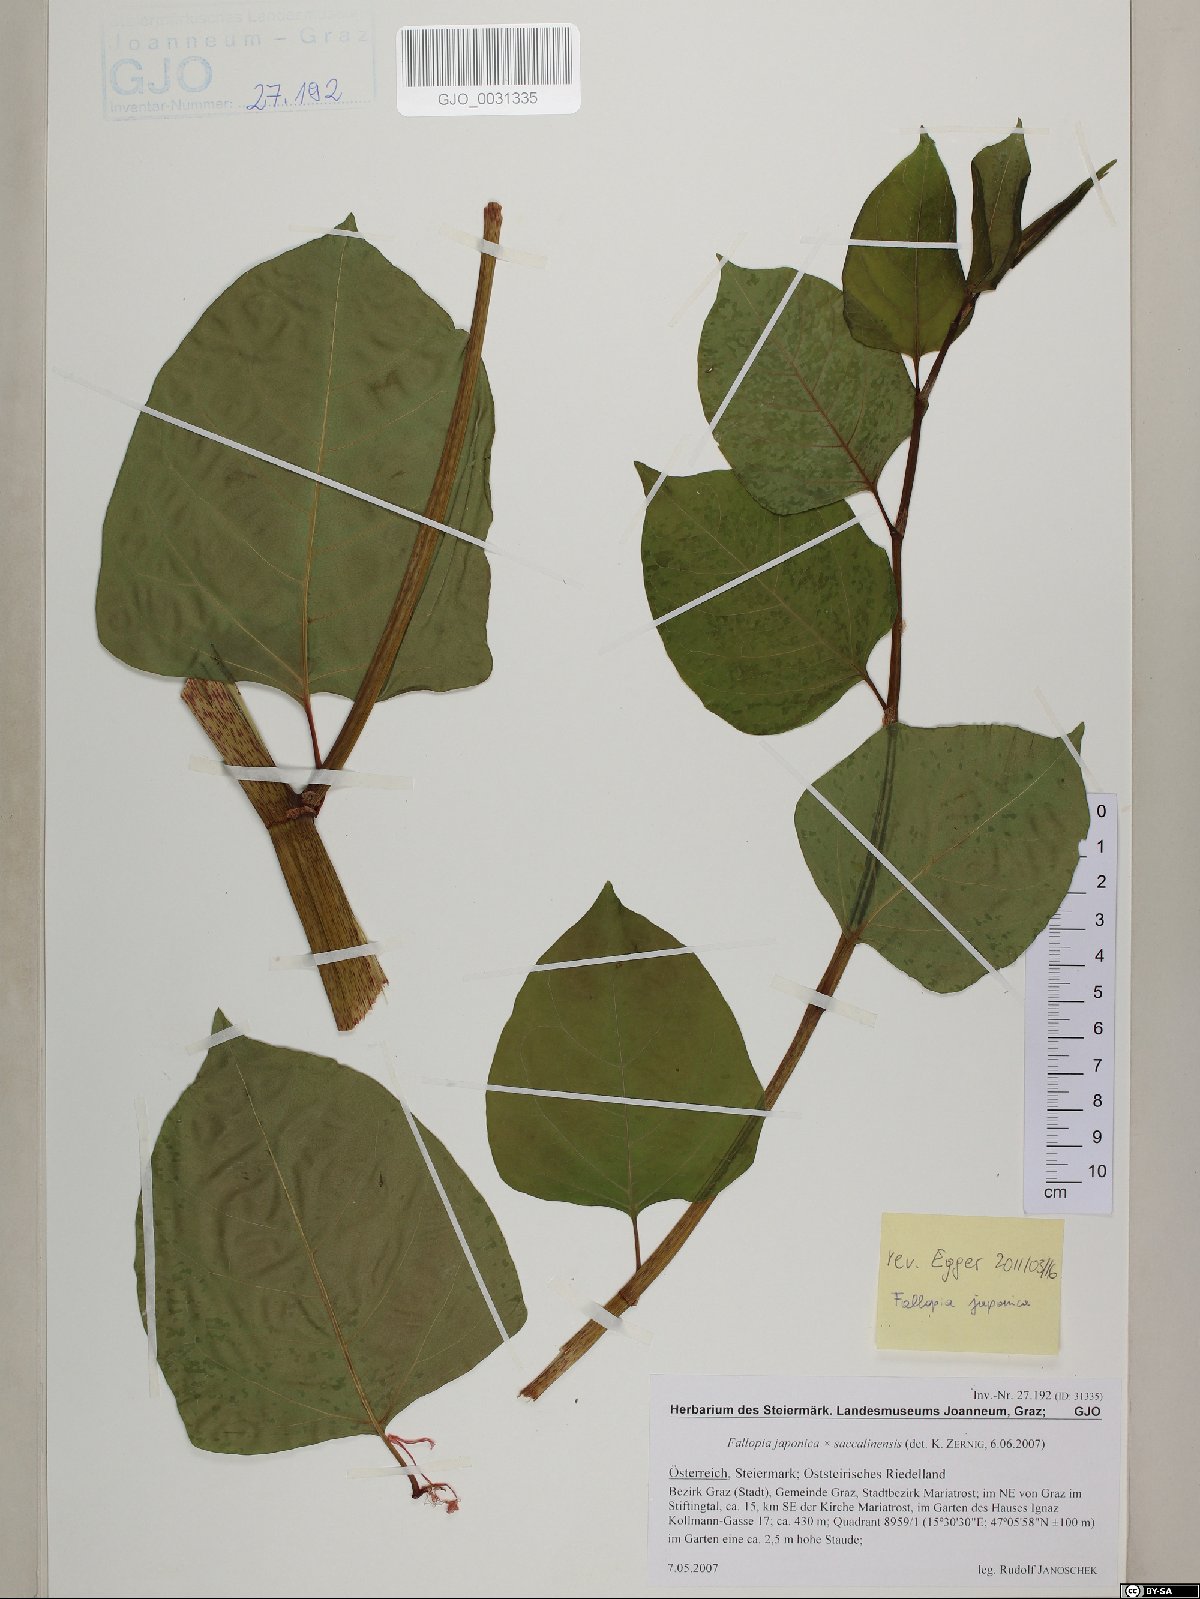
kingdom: Plantae
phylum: Tracheophyta
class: Magnoliopsida
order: Caryophyllales
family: Polygonaceae
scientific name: Polygonaceae
